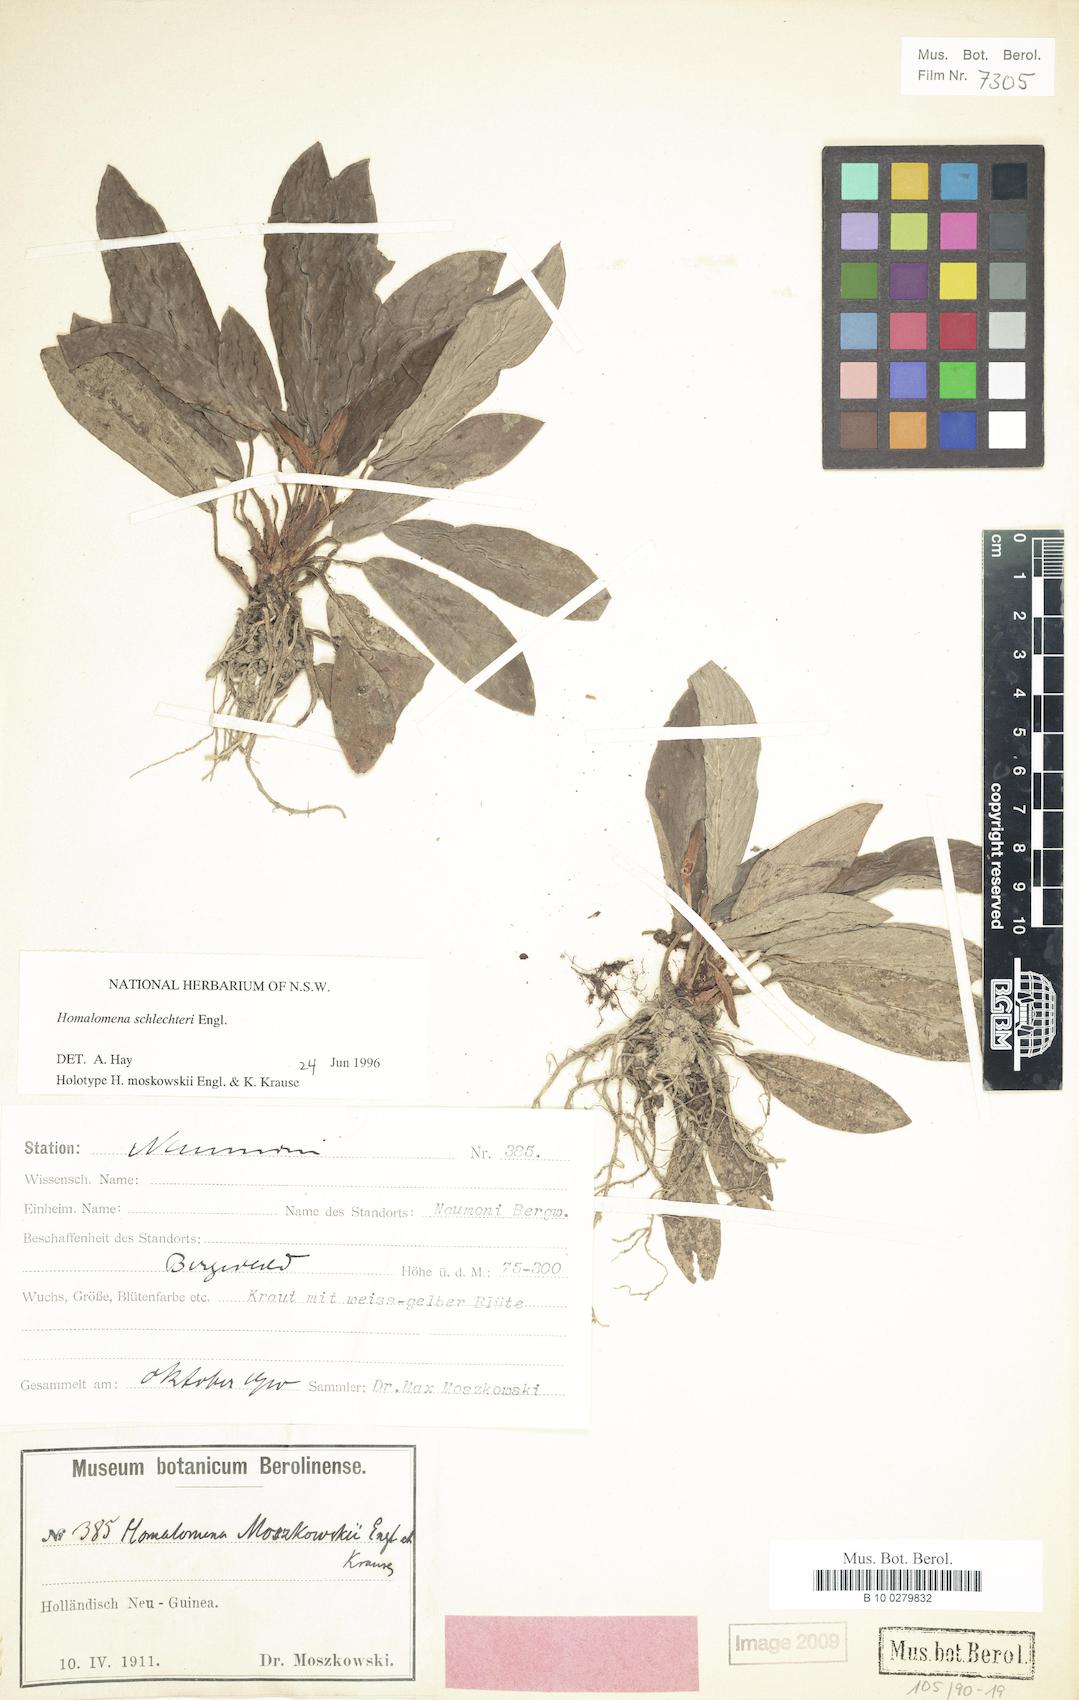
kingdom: Plantae
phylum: Tracheophyta
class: Liliopsida
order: Alismatales
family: Araceae
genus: Homalomena
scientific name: Homalomena schlechteri
